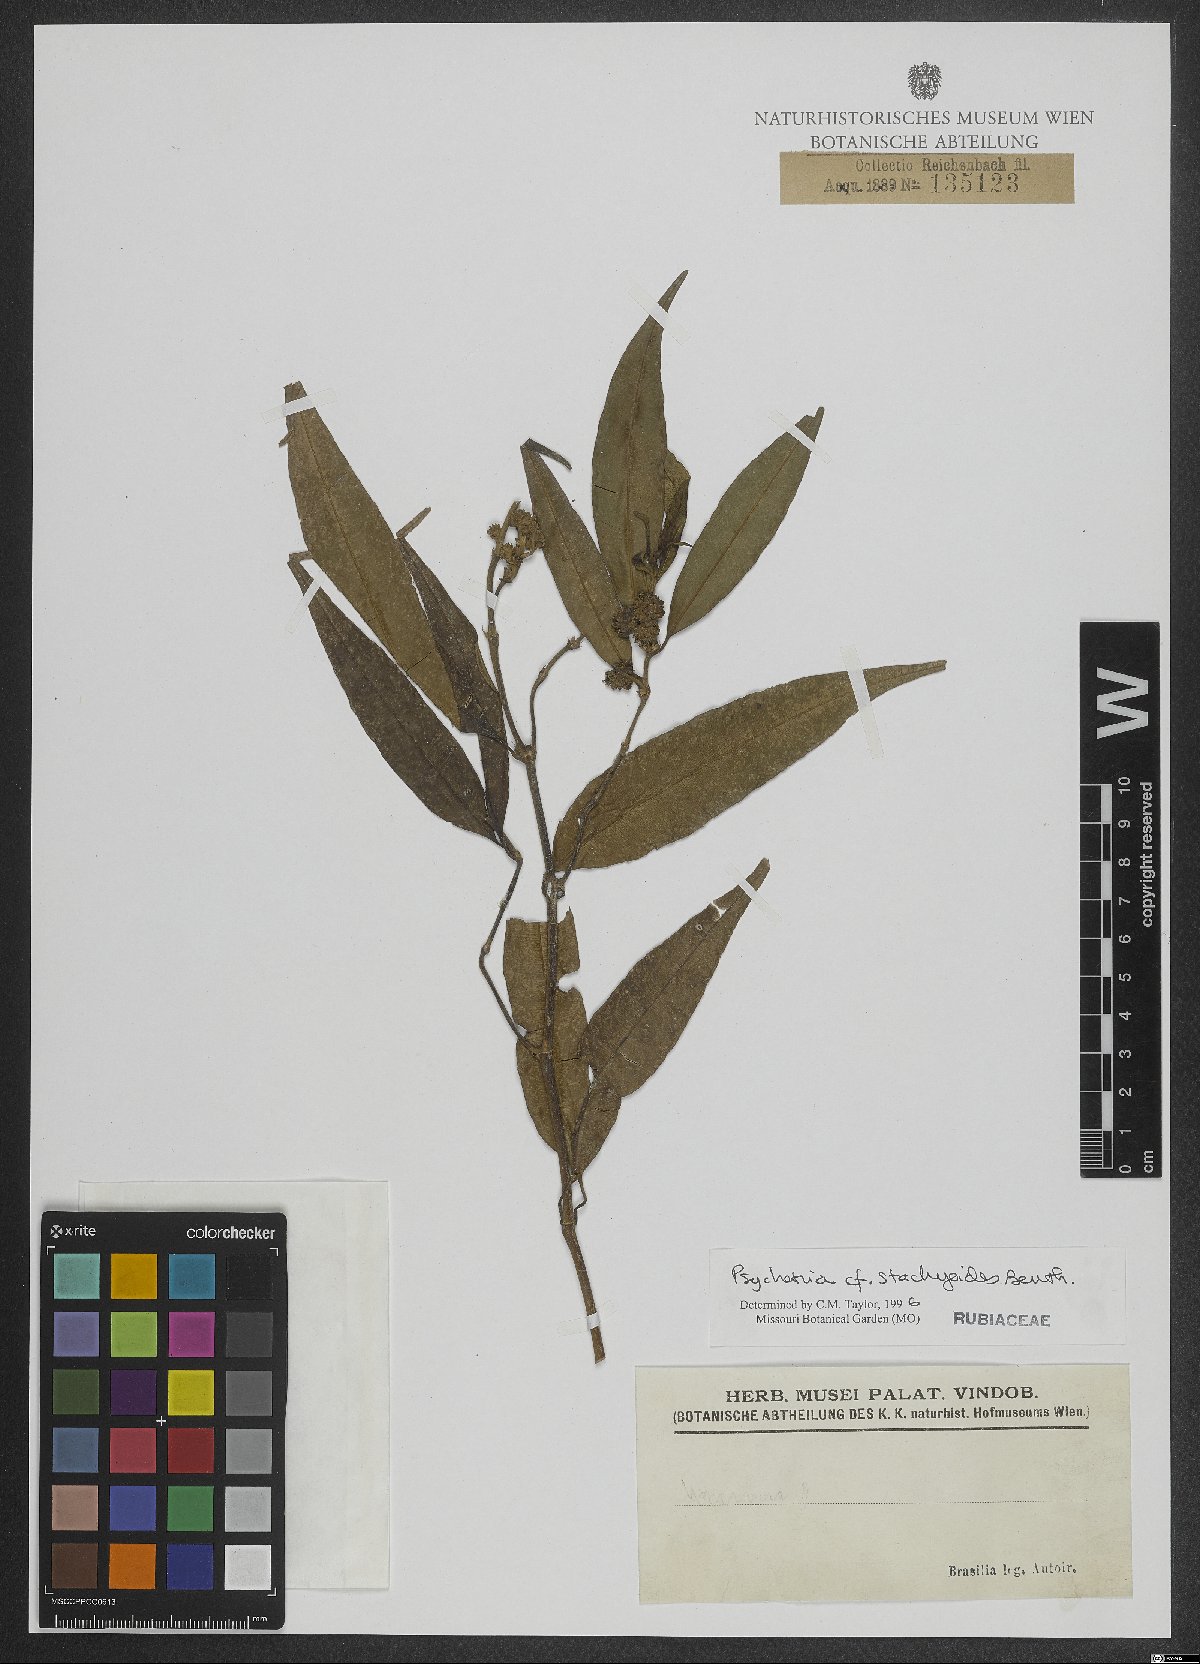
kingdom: Plantae
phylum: Tracheophyta
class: Magnoliopsida
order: Gentianales
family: Rubiaceae
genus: Psychotria
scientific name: Psychotria stachyoides
